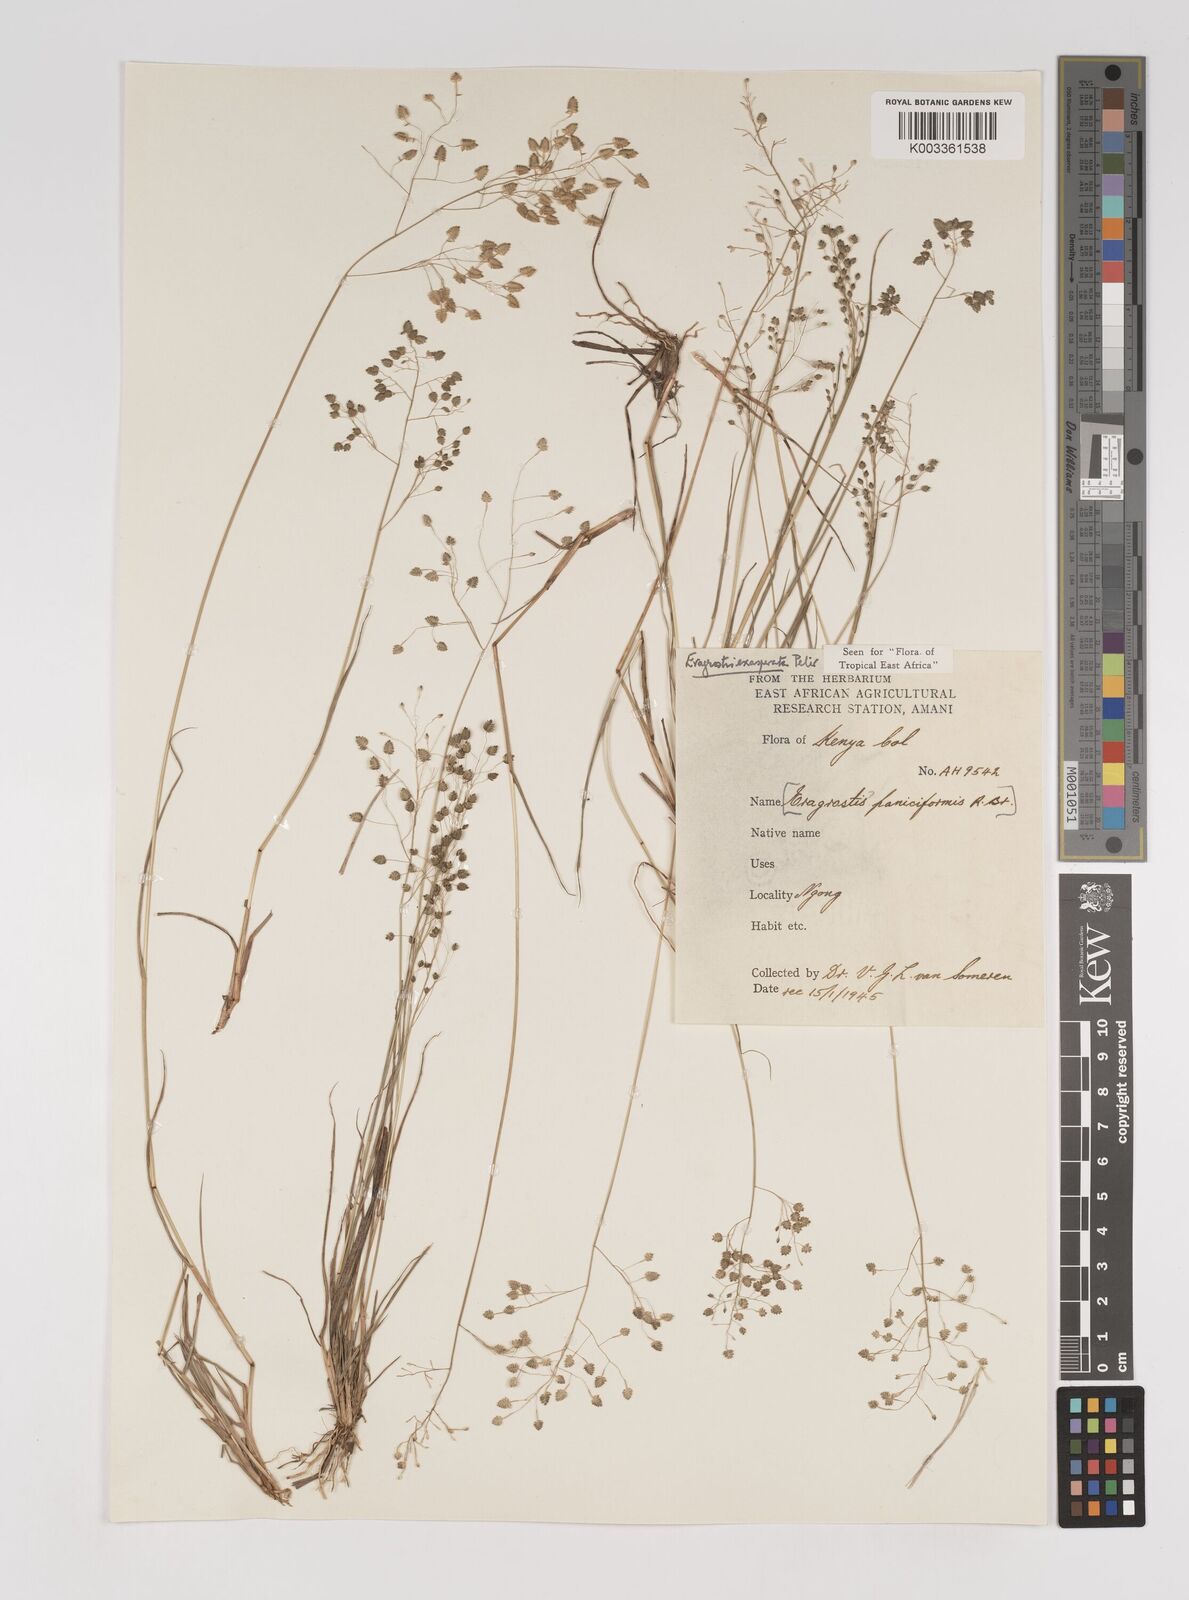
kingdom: Plantae
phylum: Tracheophyta
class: Liliopsida
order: Poales
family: Poaceae
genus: Eragrostis
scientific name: Eragrostis exasperata
